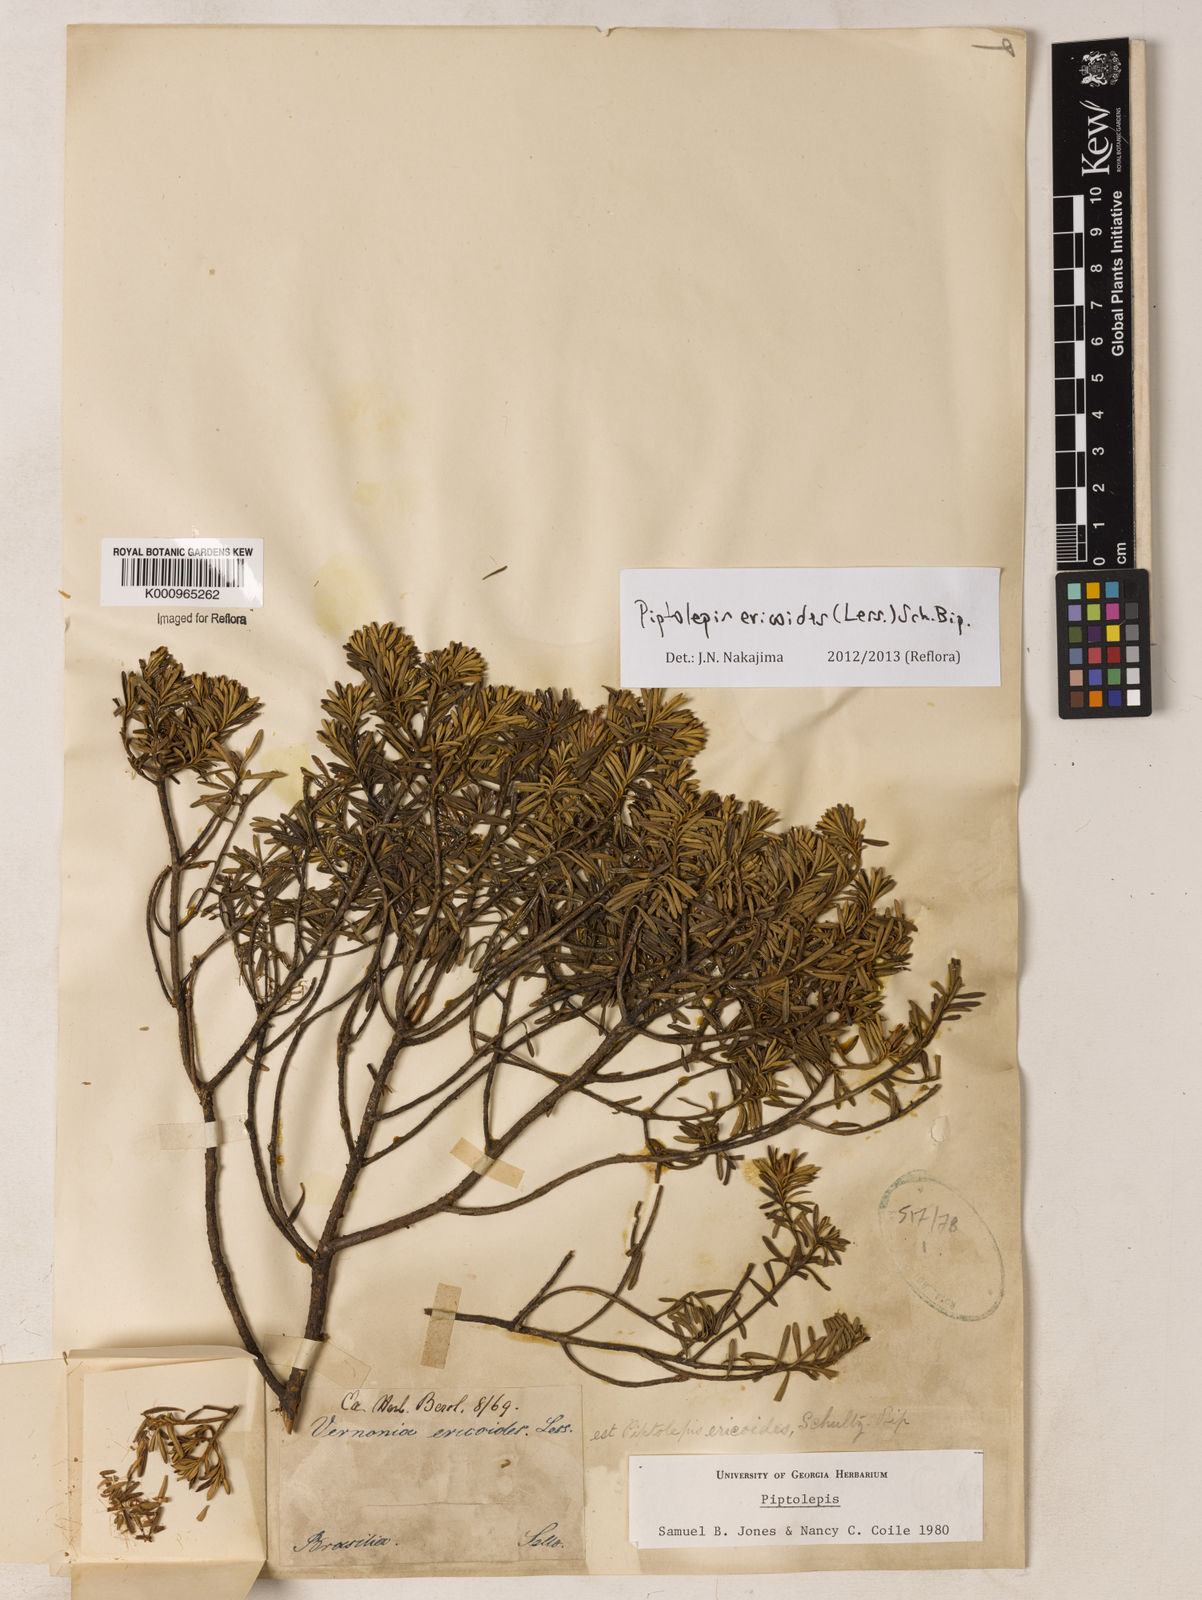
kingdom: Plantae
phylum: Tracheophyta
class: Magnoliopsida
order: Asterales
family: Asteraceae
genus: Piptolepis
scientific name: Piptolepis ericoides
